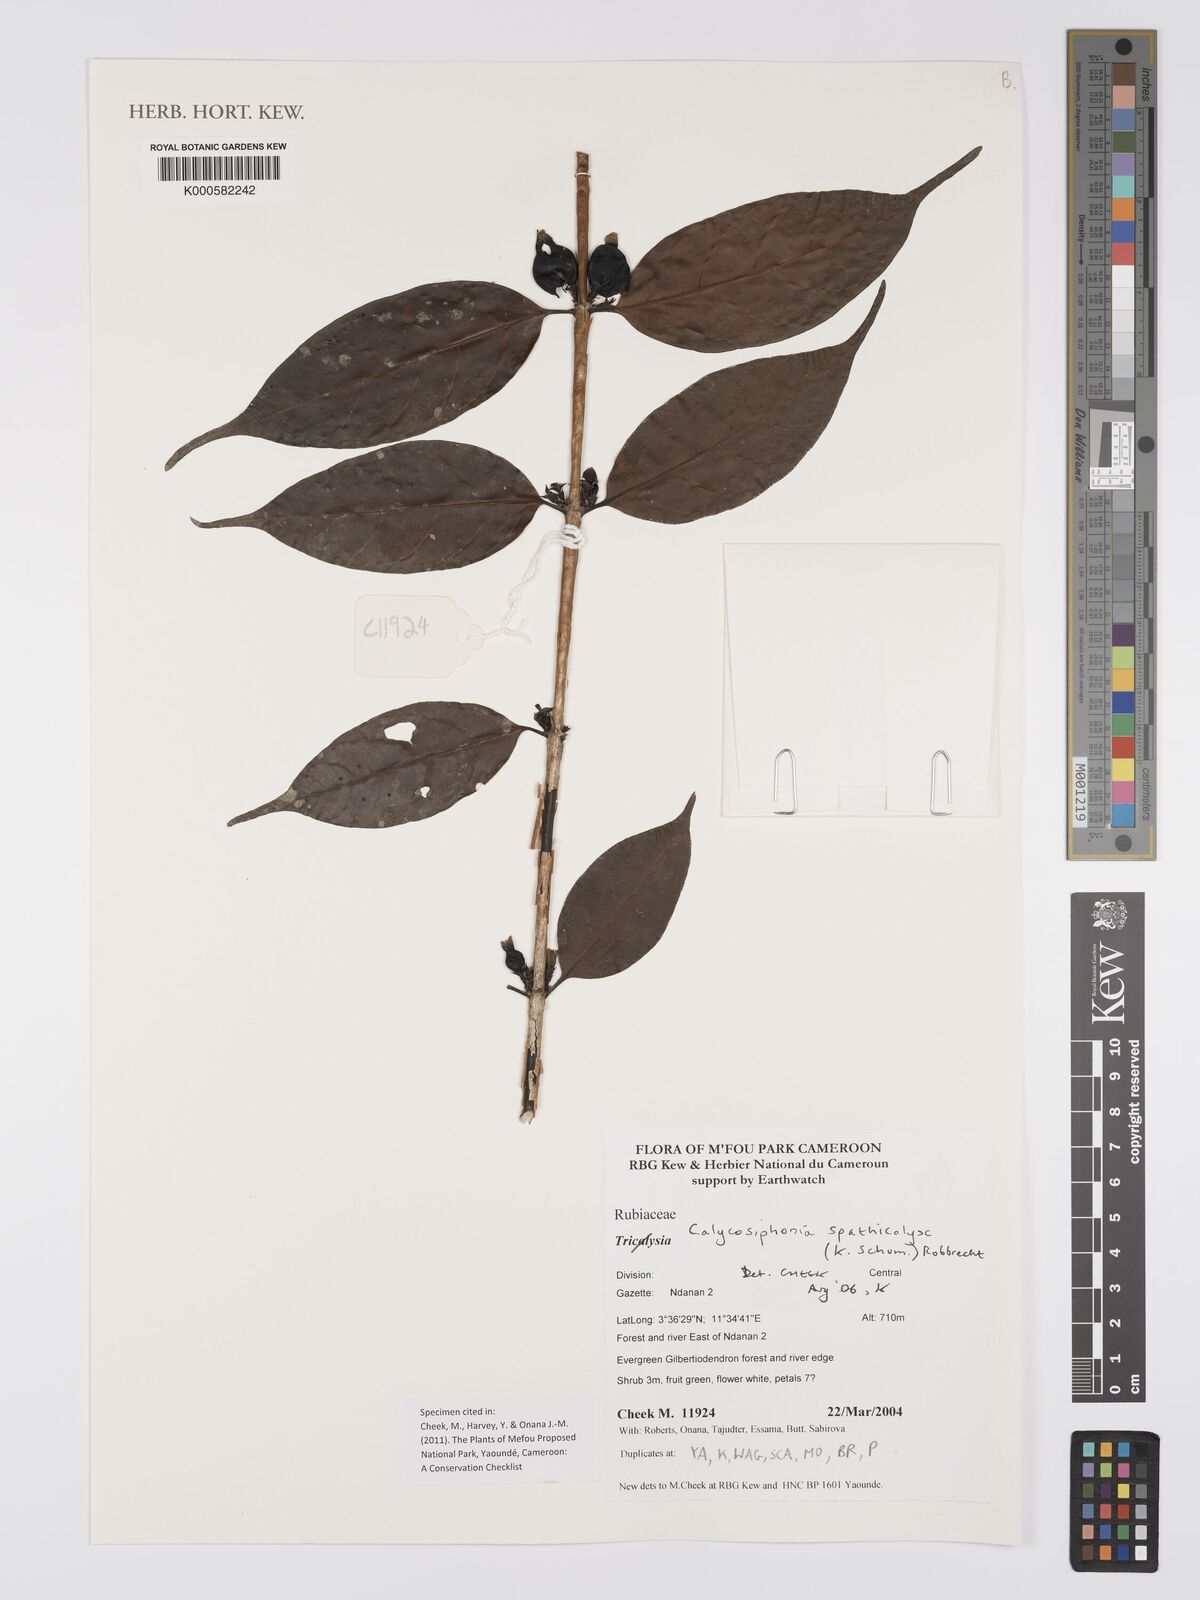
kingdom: Plantae
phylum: Tracheophyta
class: Magnoliopsida
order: Gentianales
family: Rubiaceae
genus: Calycosiphonia
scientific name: Calycosiphonia spathicalyx
